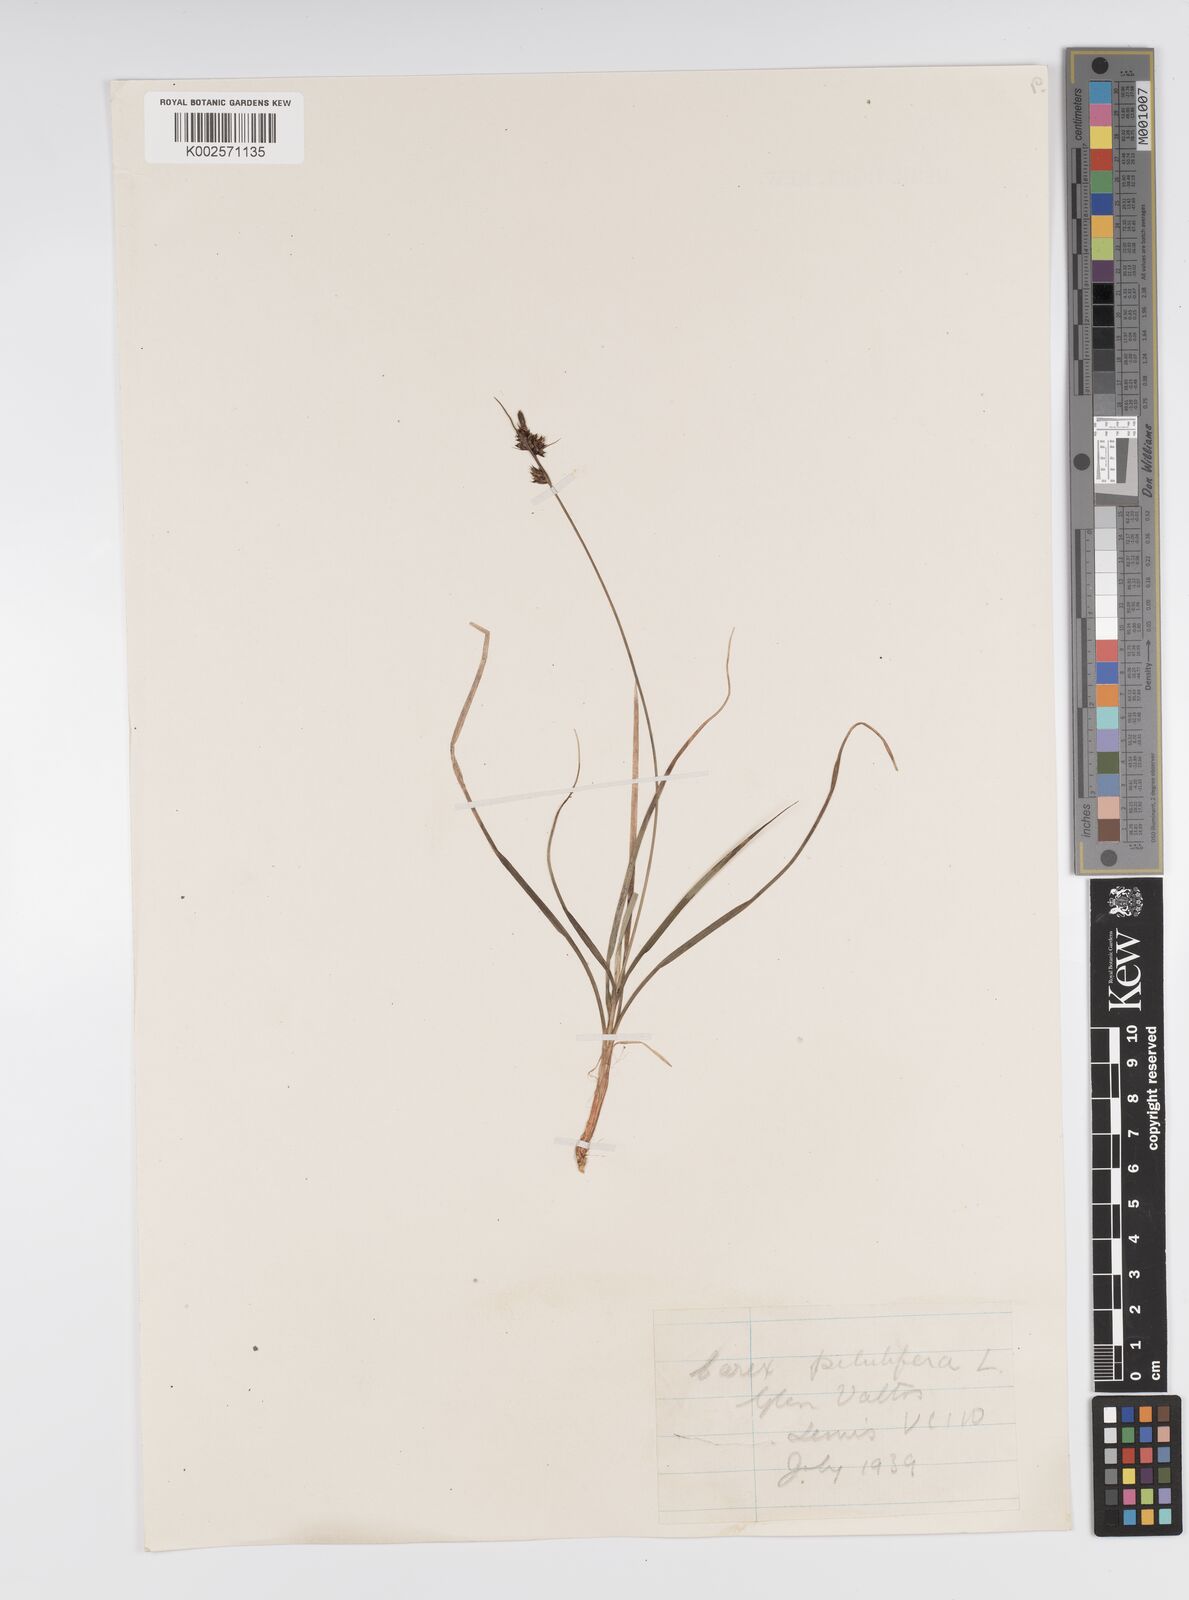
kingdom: Plantae
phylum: Tracheophyta
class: Liliopsida
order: Poales
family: Cyperaceae
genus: Carex
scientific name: Carex pilulifera
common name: Pill sedge
